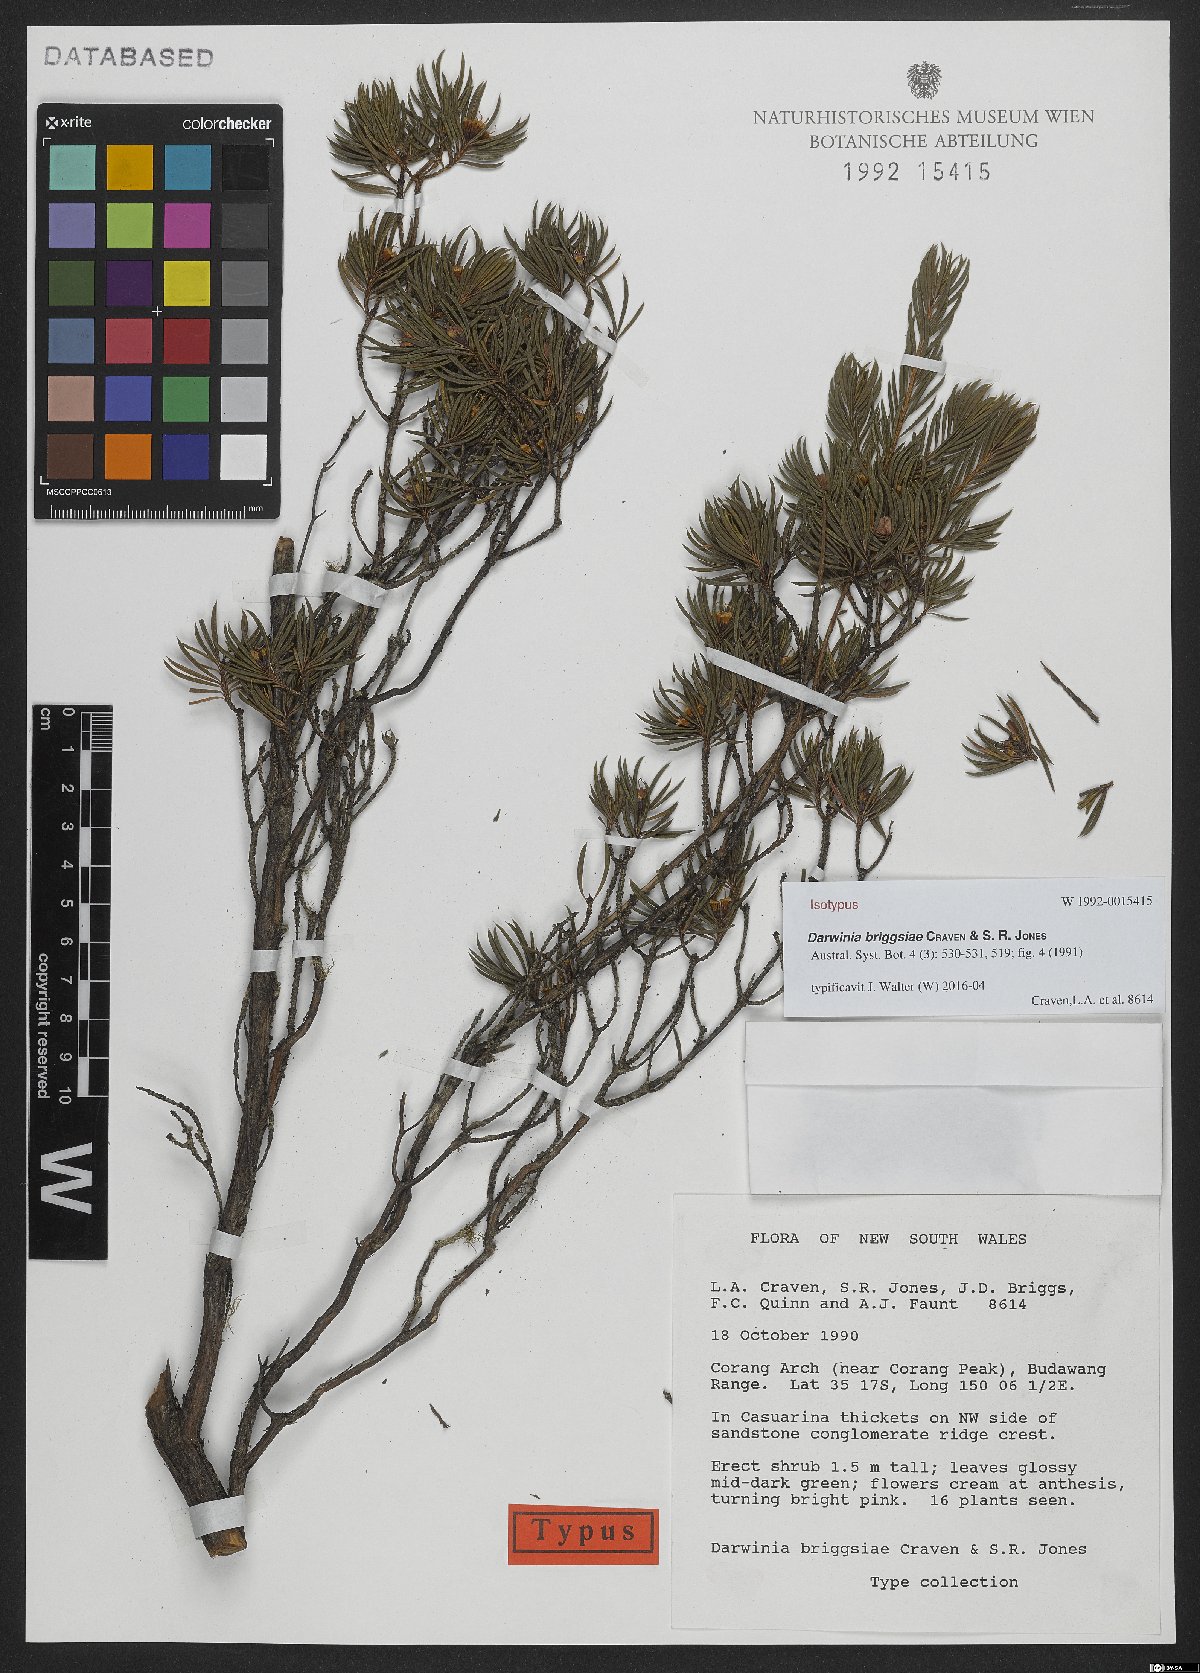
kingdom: Plantae
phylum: Tracheophyta
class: Magnoliopsida
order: Myrtales
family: Myrtaceae
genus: Darwinia
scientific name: Darwinia briggsiae
